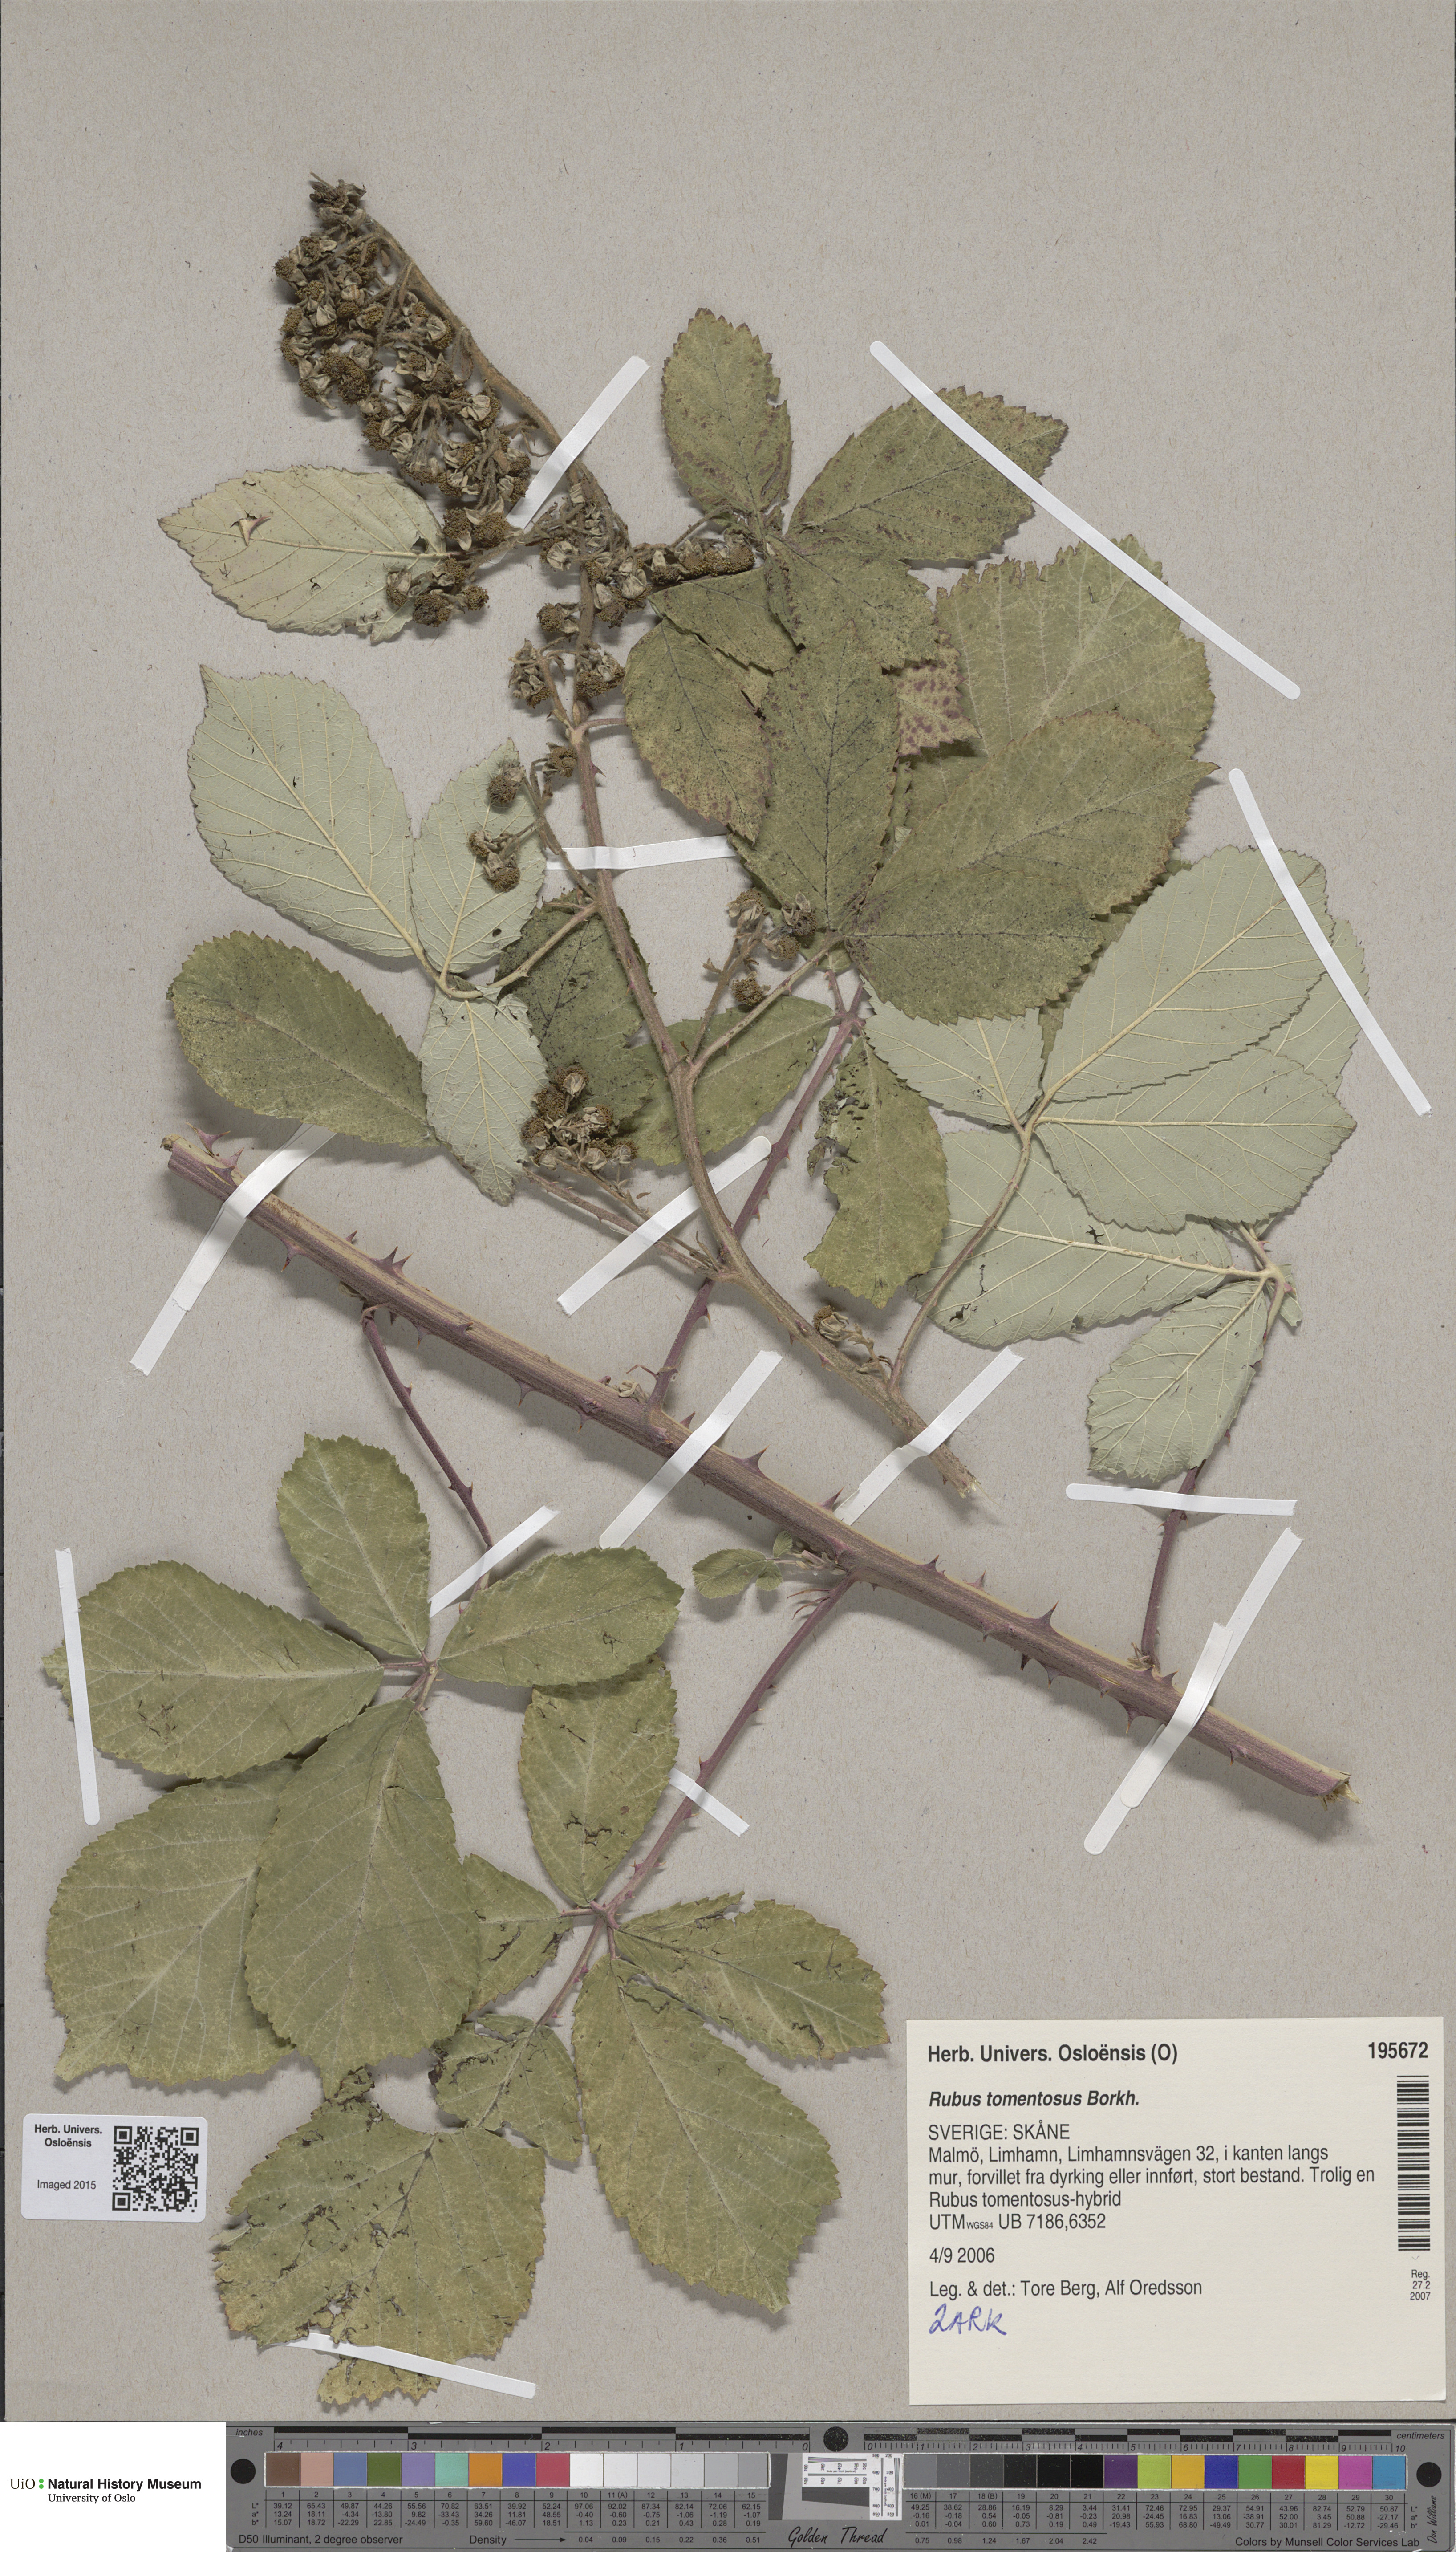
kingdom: Plantae
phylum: Tracheophyta
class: Magnoliopsida
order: Rosales
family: Rosaceae
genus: Rubus
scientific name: Rubus canescens
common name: Wooly blackberry
